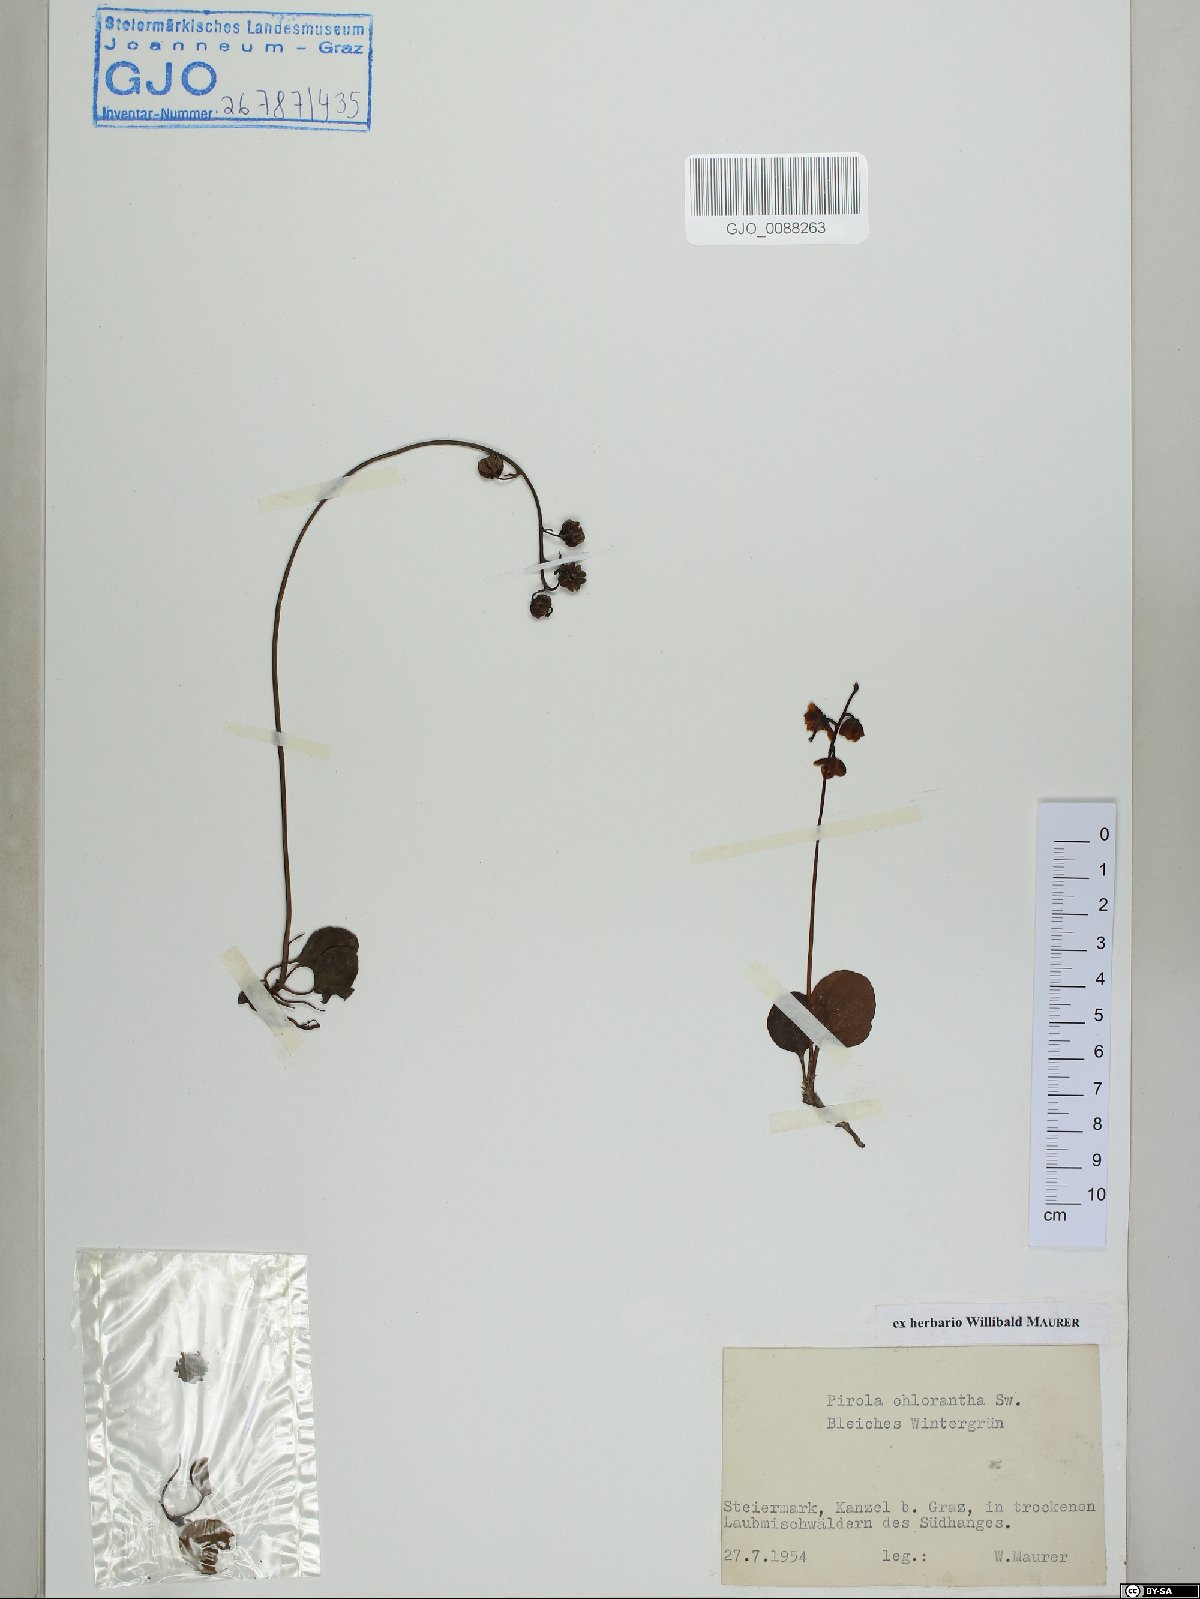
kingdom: Plantae
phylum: Tracheophyta
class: Magnoliopsida
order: Ericales
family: Ericaceae
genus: Pyrola
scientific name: Pyrola chlorantha
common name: Green wintergreen
